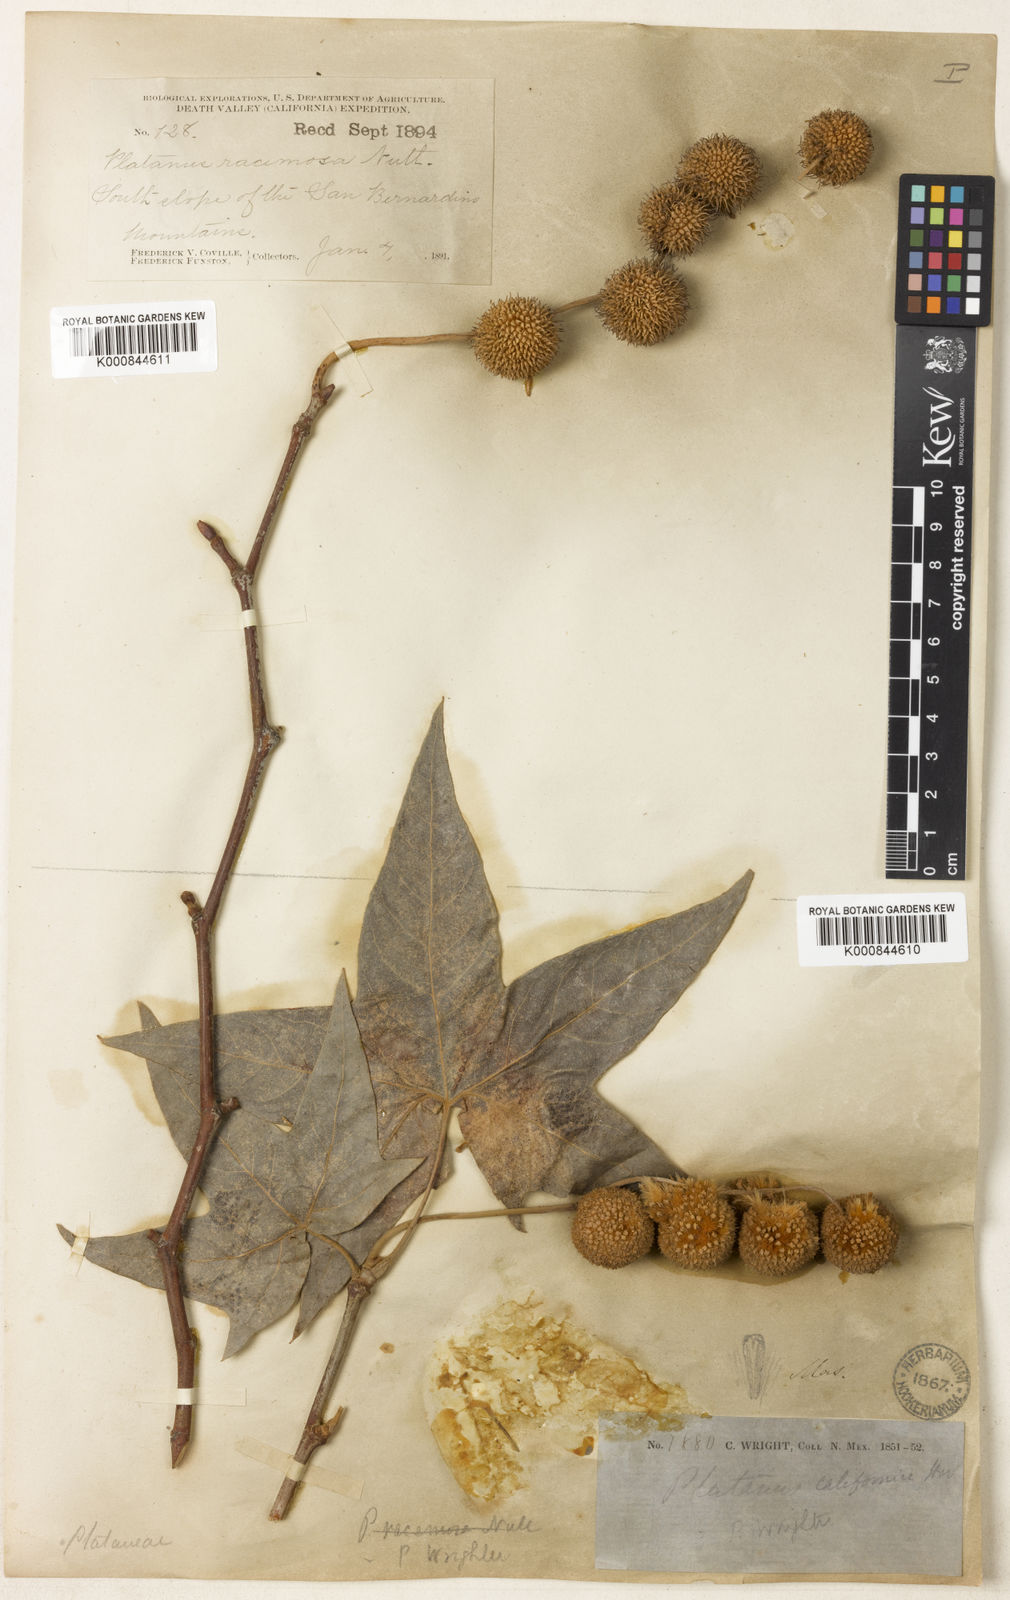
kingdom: Plantae
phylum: Tracheophyta
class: Magnoliopsida
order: Proteales
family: Platanaceae
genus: Platanus
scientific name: Platanus wrightii
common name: Arizona sycamore
